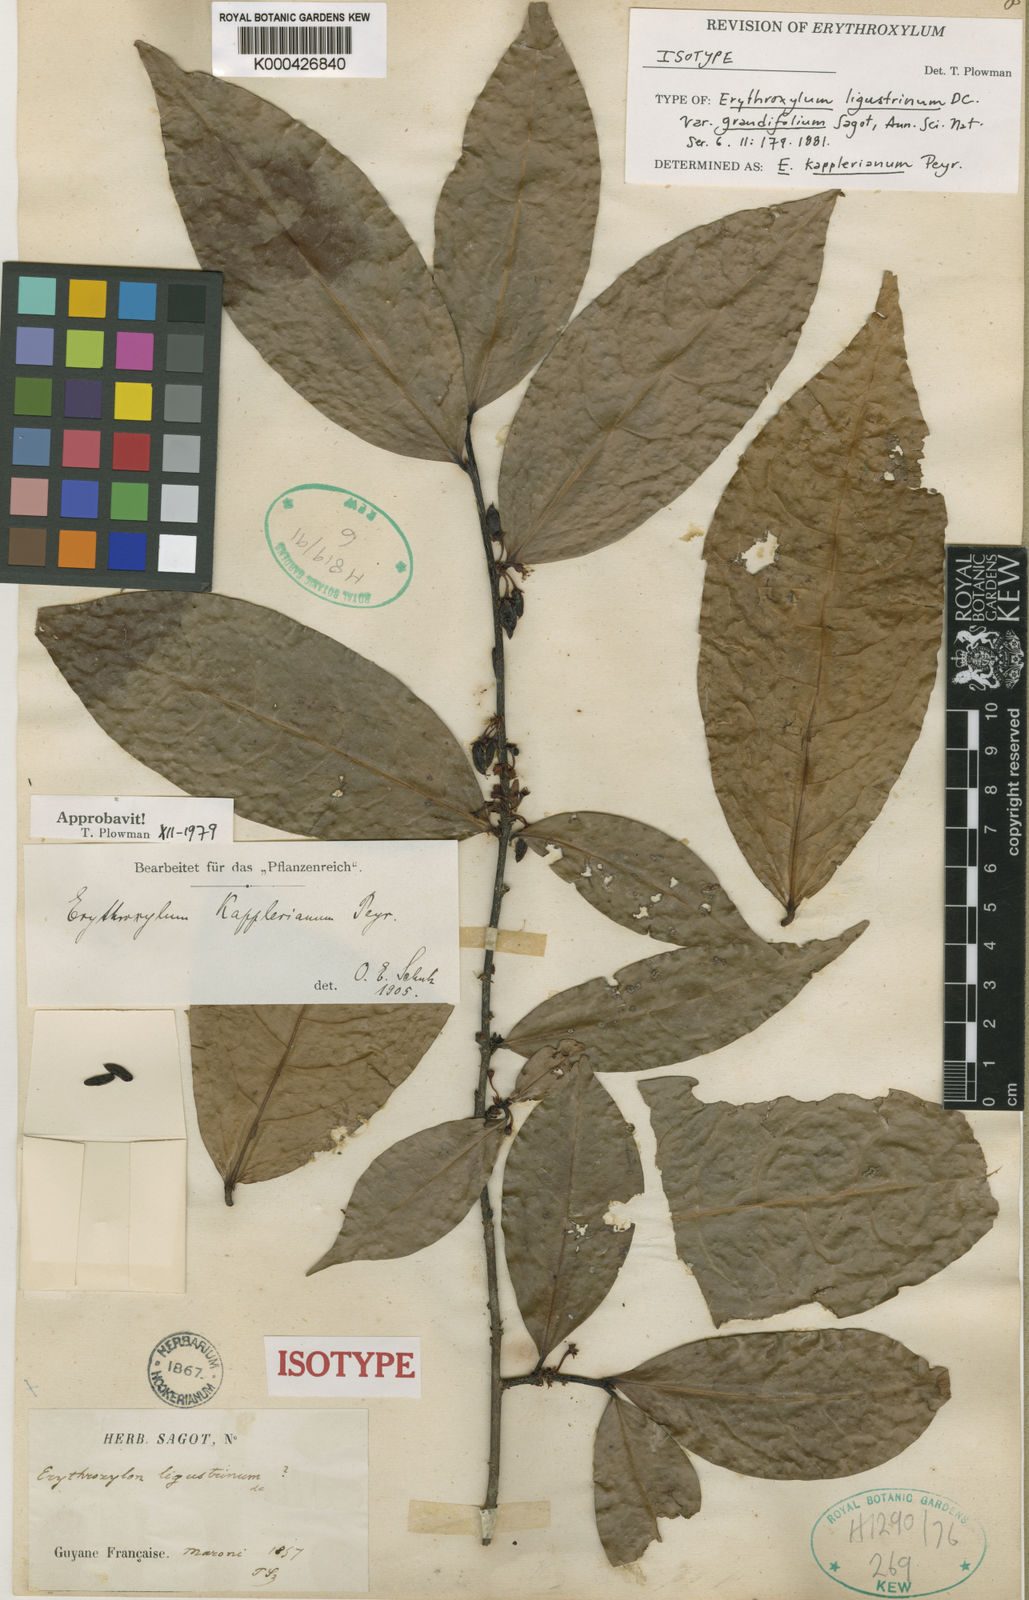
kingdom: Plantae
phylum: Tracheophyta
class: Magnoliopsida
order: Malpighiales
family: Erythroxylaceae
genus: Erythroxylum
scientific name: Erythroxylum ligustrinum
